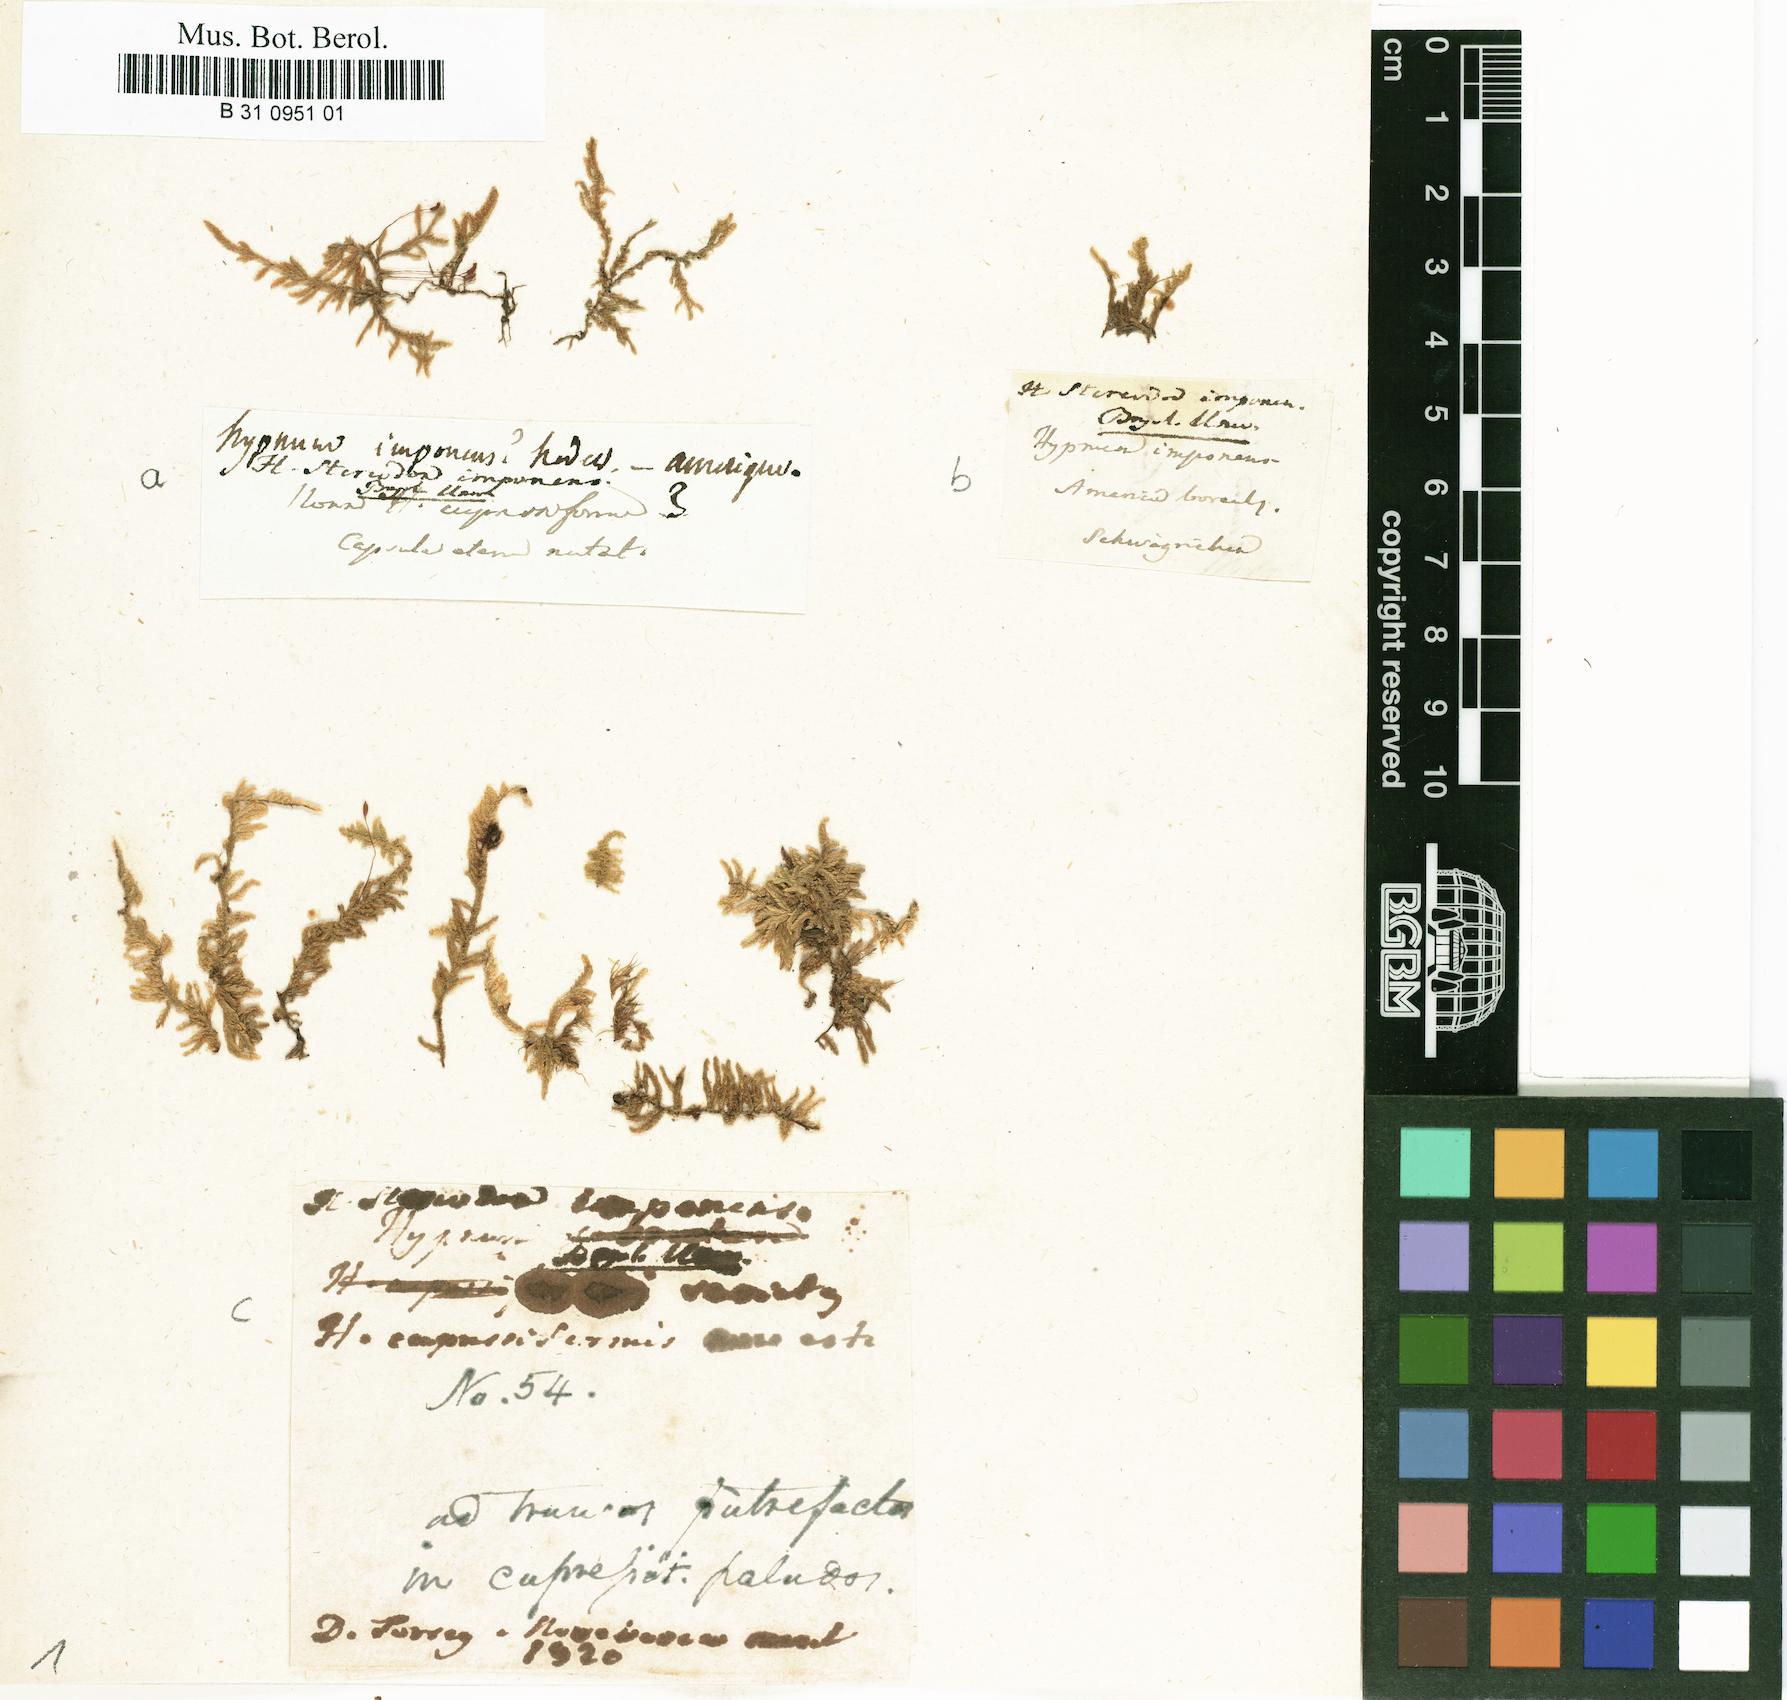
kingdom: Plantae
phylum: Bryophyta
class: Bryopsida
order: Hypnales
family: Callicladiaceae
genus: Callicladium
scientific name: Callicladium imponens
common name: Brocade moss
